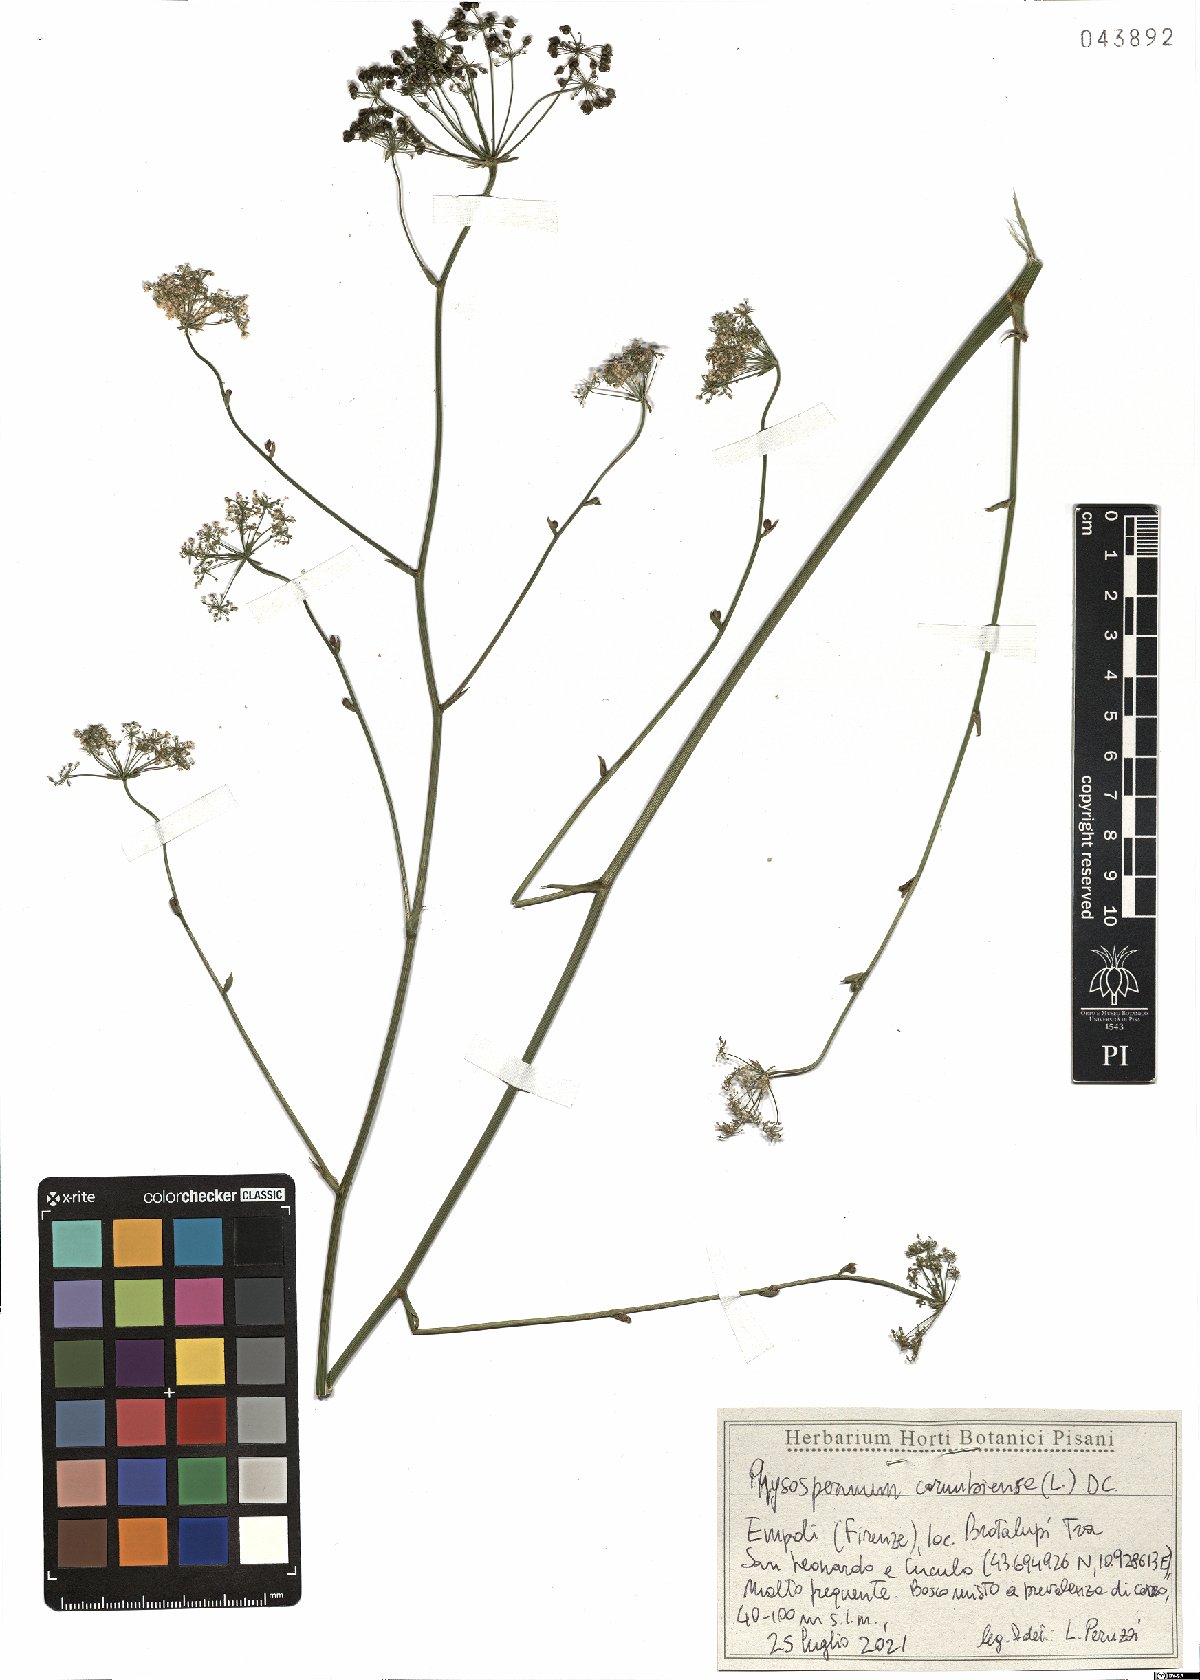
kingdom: Plantae
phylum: Tracheophyta
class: Magnoliopsida
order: Apiales
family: Apiaceae
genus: Physospermum
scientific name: Physospermum cornubiense
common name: Bladderseed
